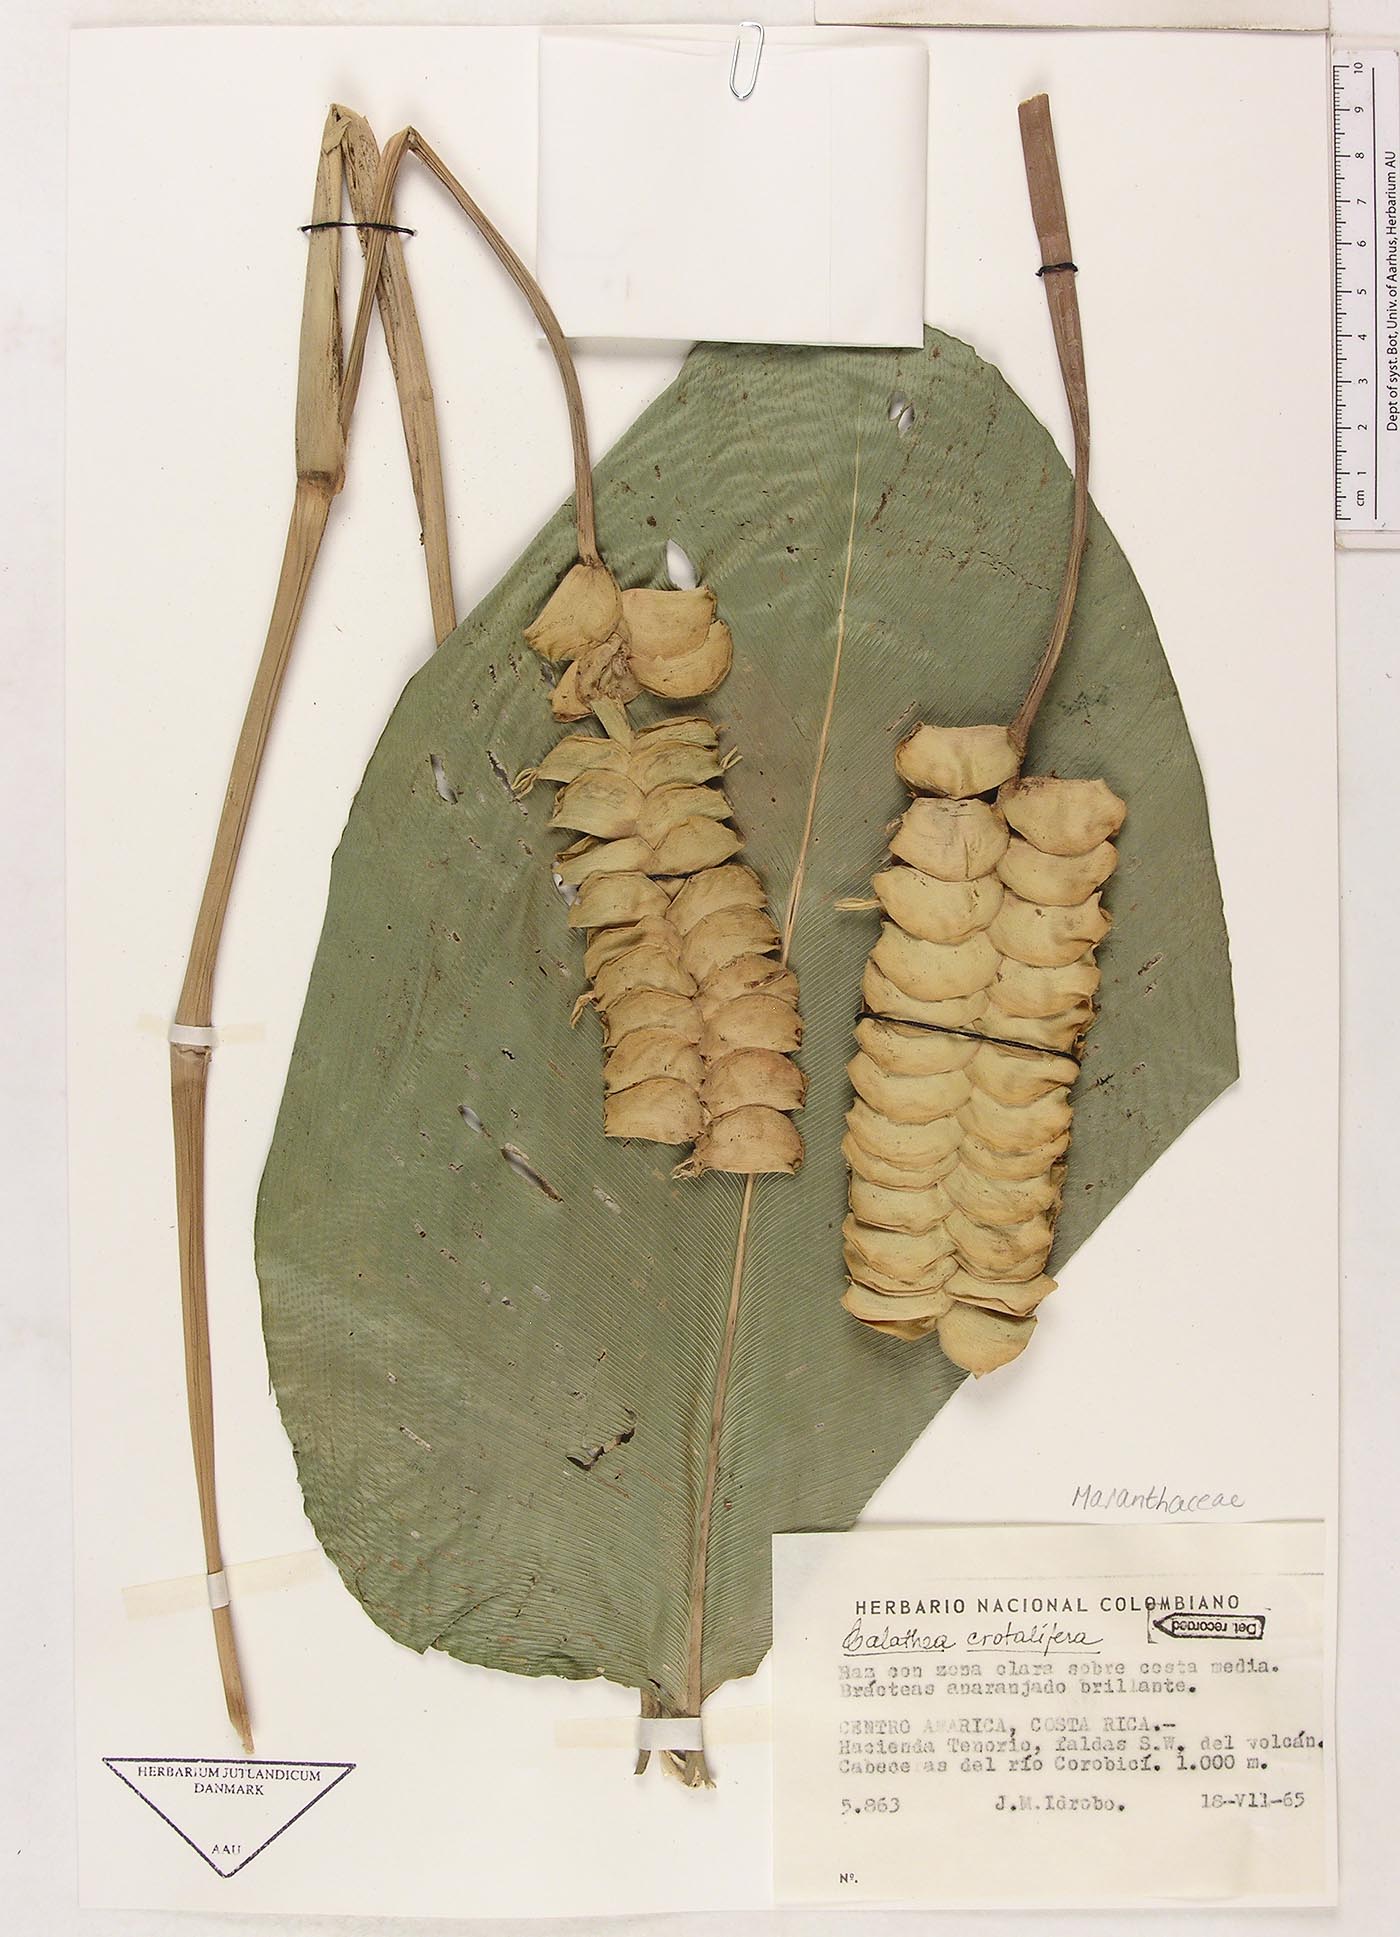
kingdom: Plantae
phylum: Tracheophyta
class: Liliopsida
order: Zingiberales
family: Marantaceae
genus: Calathea
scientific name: Calathea crotalifera
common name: Rattlesnake plant
